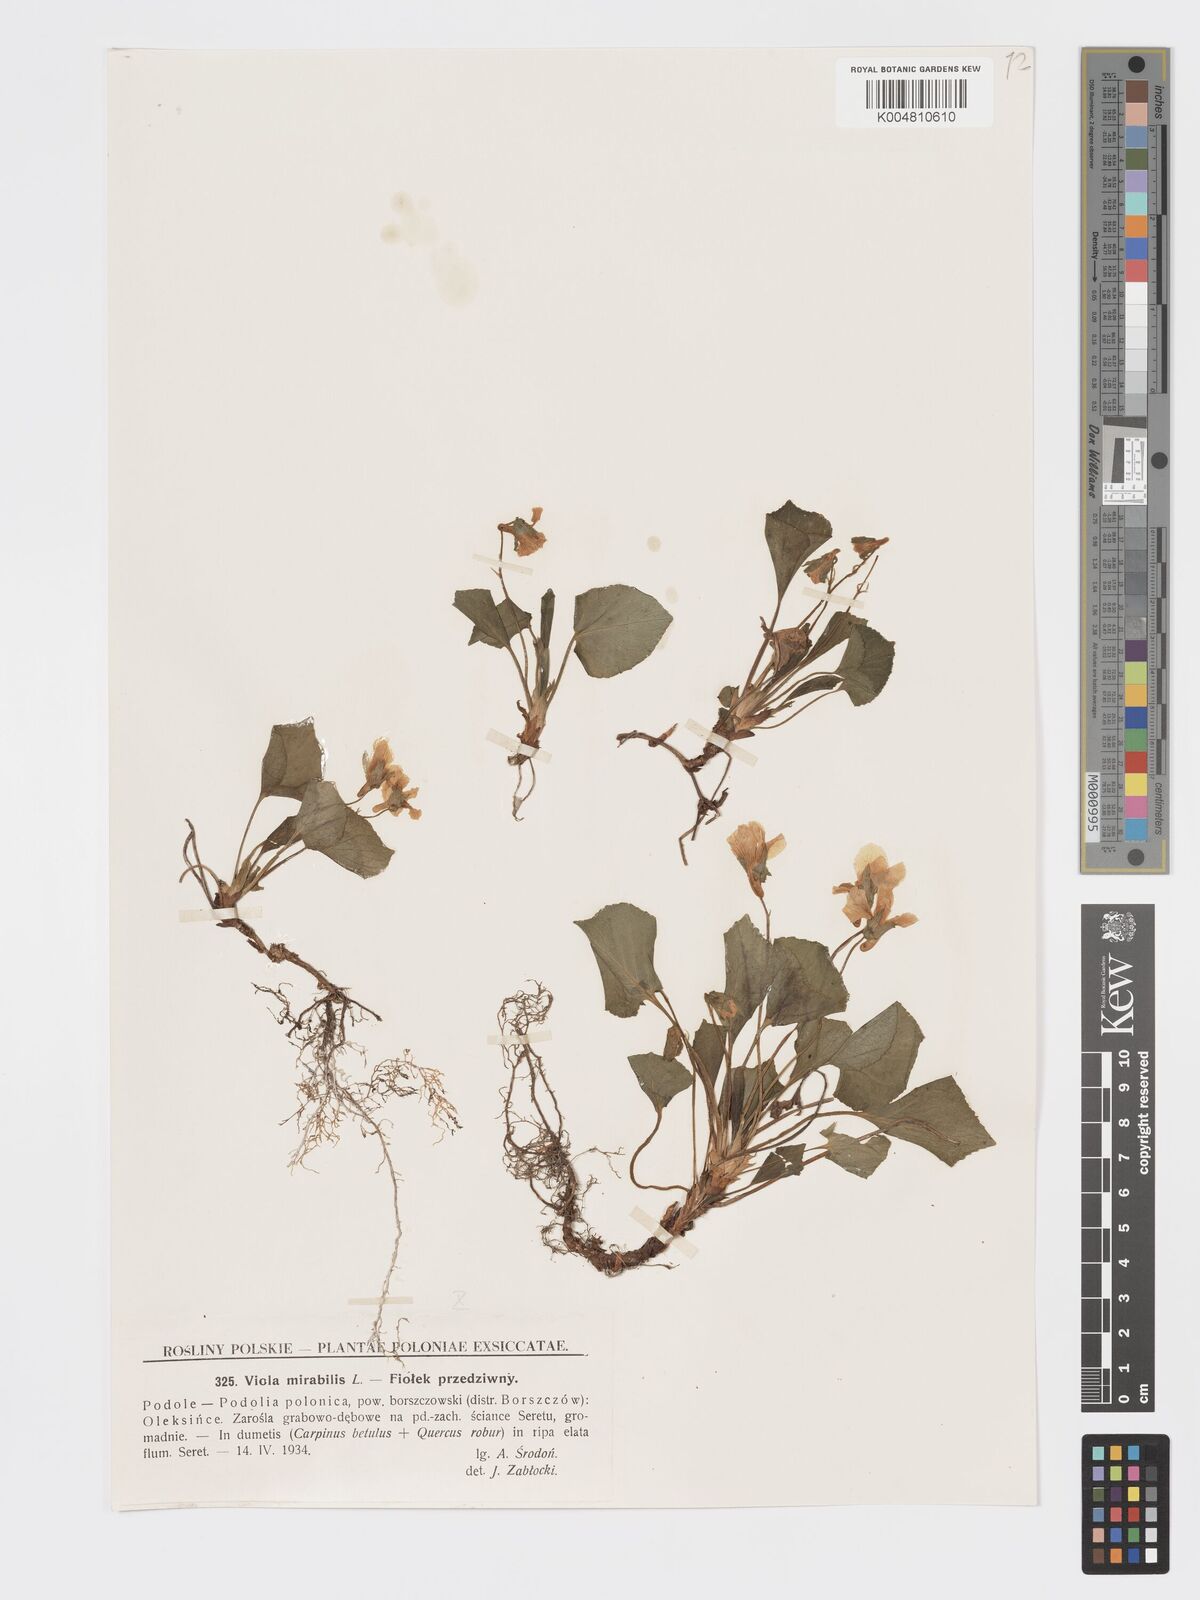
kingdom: Plantae
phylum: Tracheophyta
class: Magnoliopsida
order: Malpighiales
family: Violaceae
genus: Viola
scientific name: Viola mirabilis
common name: Wonder violet
